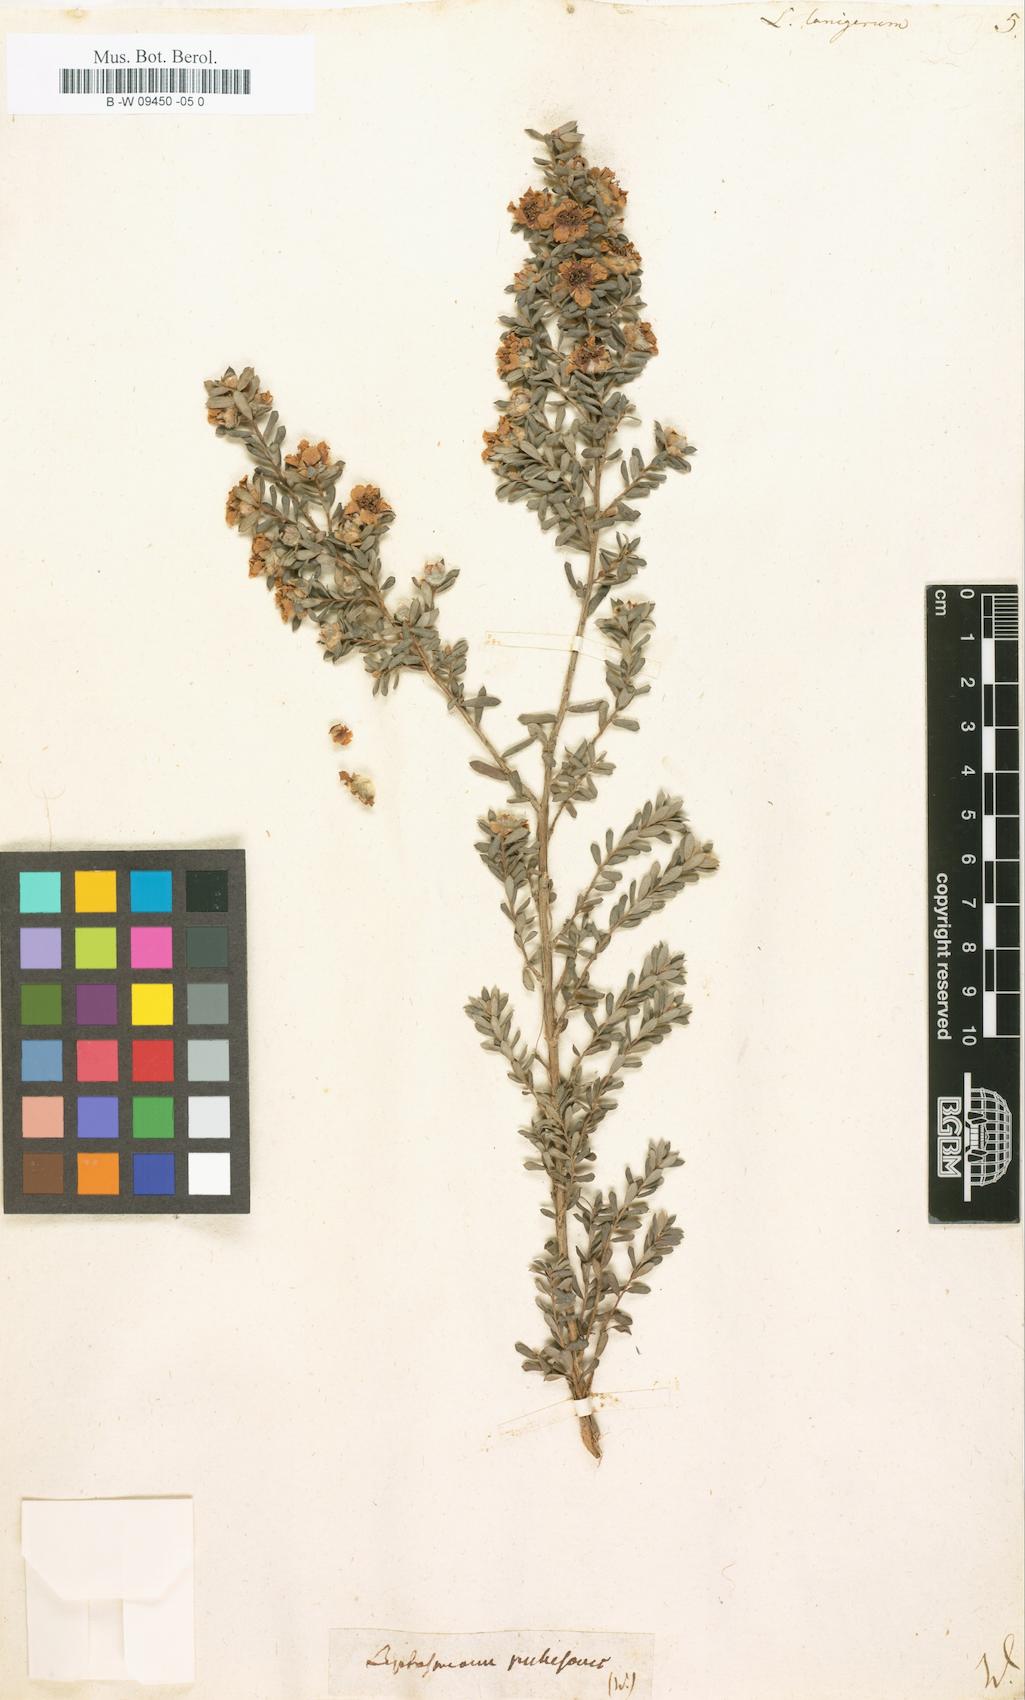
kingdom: Plantae
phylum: Tracheophyta
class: Magnoliopsida
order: Myrtales
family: Myrtaceae
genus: Leptospermum
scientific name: Leptospermum lanigerum
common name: Woolly tea-tree
